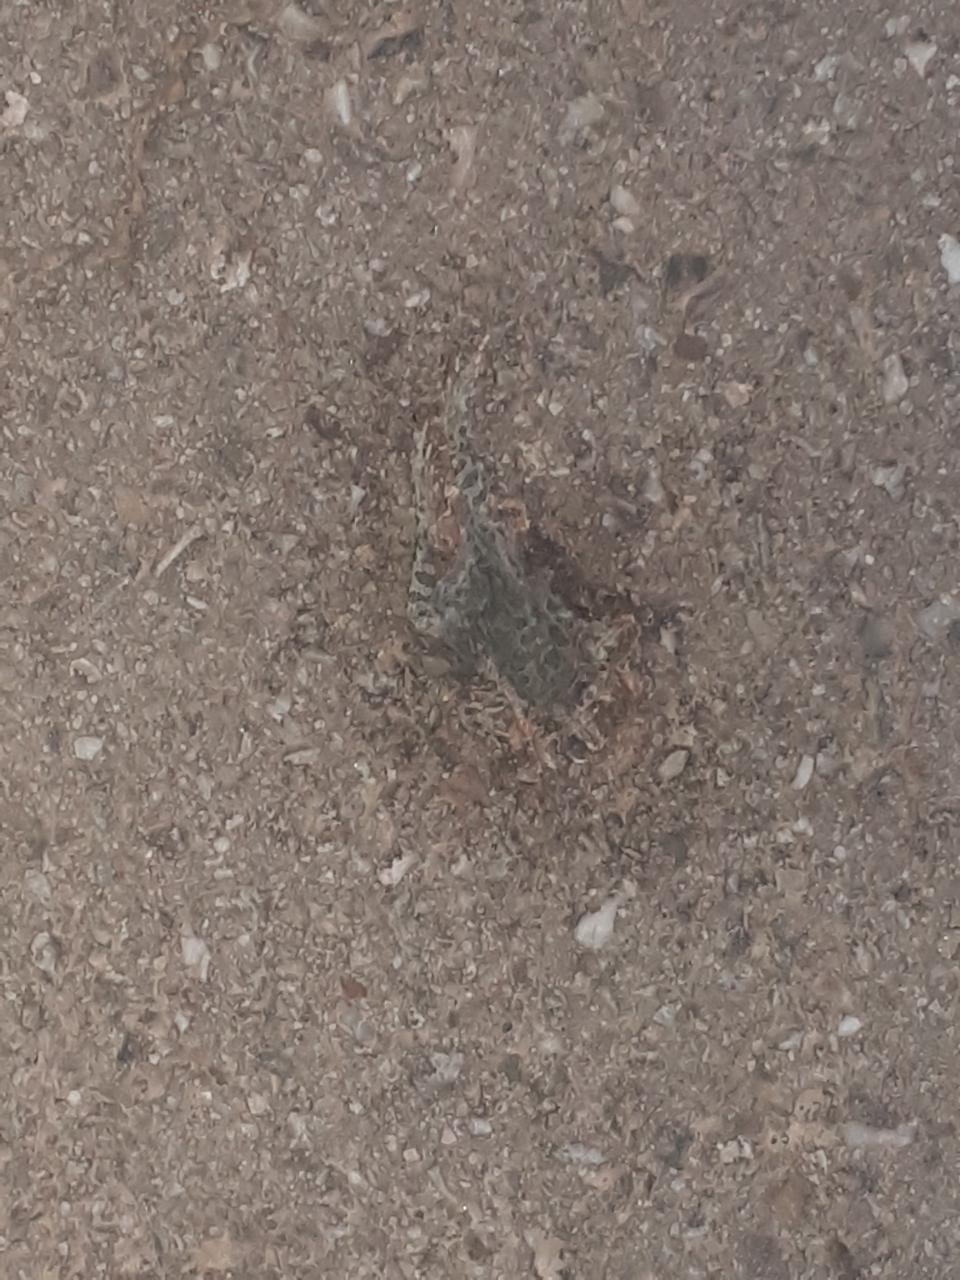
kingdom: Animalia
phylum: Chordata
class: Amphibia
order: Anura
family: Bufonidae
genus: Bufotes
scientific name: Bufotes viridis
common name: European green toad
